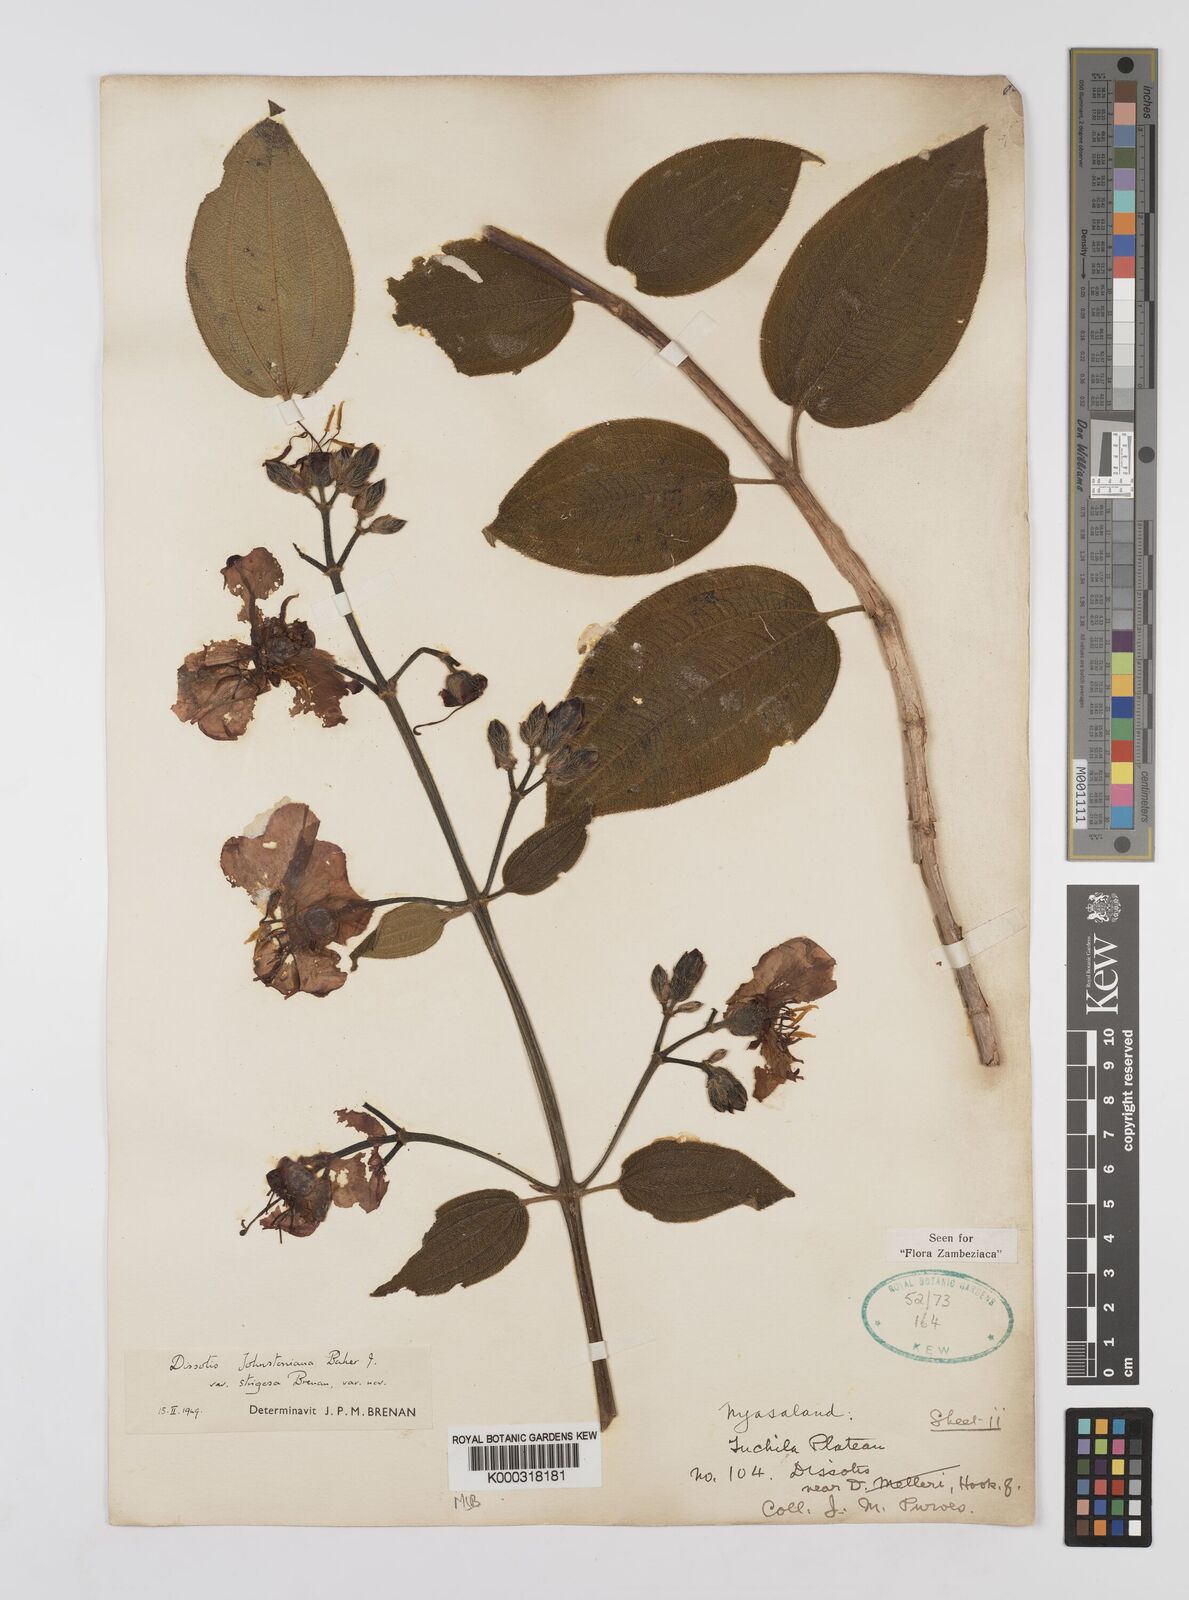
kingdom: Plantae
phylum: Tracheophyta
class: Magnoliopsida
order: Myrtales
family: Melastomataceae
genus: Dissotidendron
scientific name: Dissotidendron johnstonianum
